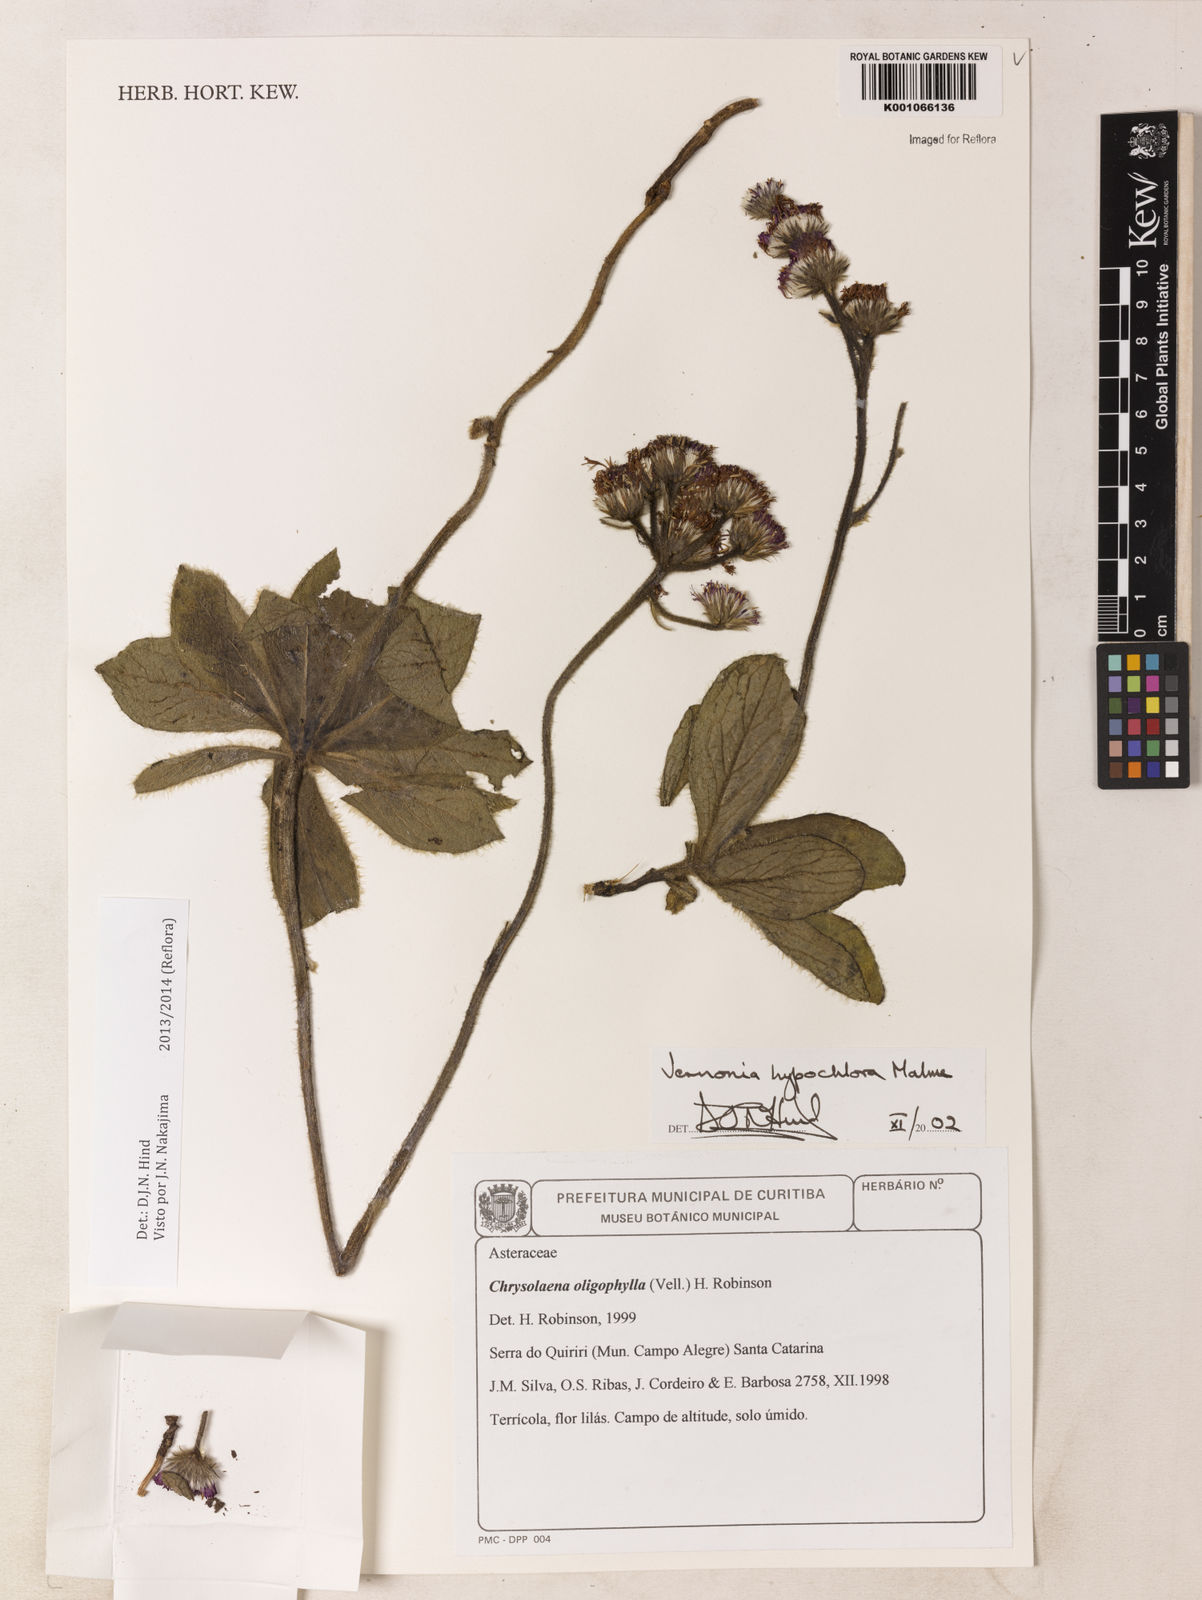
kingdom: Plantae
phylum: Tracheophyta
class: Magnoliopsida
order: Asterales
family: Asteraceae
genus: Chrysolaena
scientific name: Chrysolaena oligophylla
